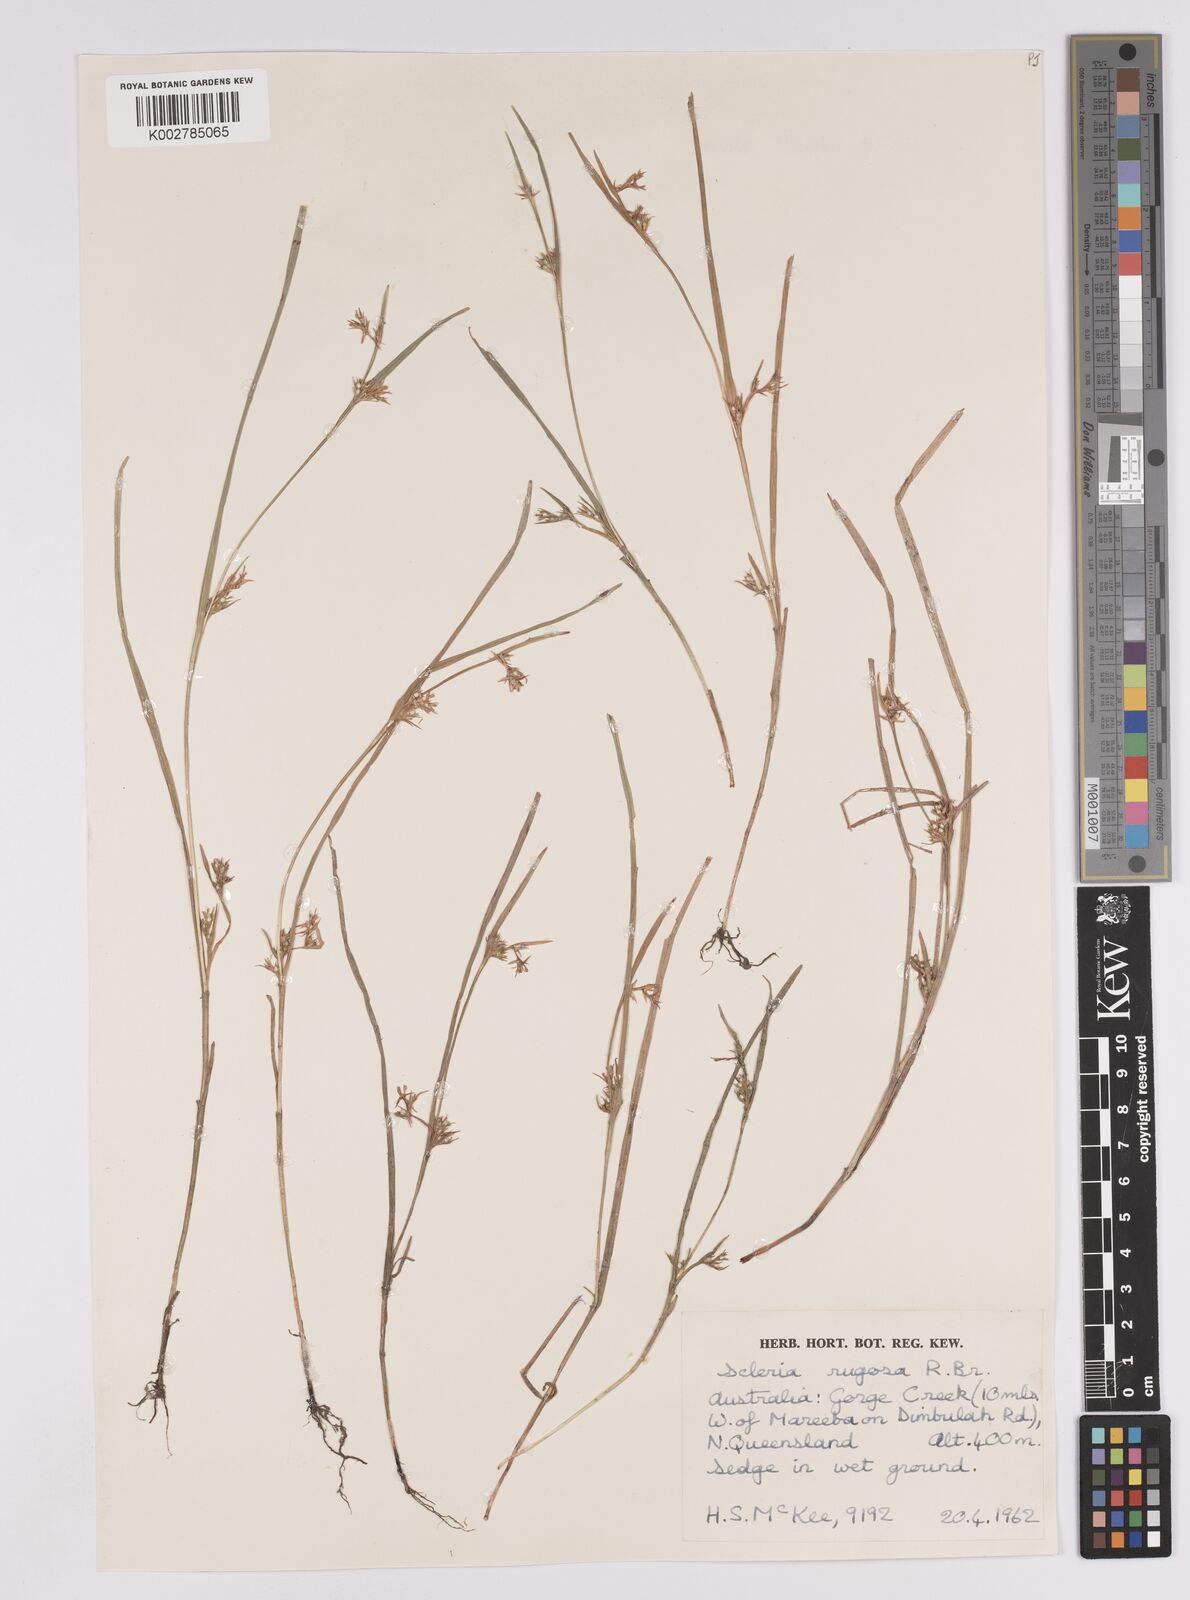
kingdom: Plantae
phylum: Tracheophyta
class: Liliopsida
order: Poales
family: Cyperaceae
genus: Scleria
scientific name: Scleria rugosa
